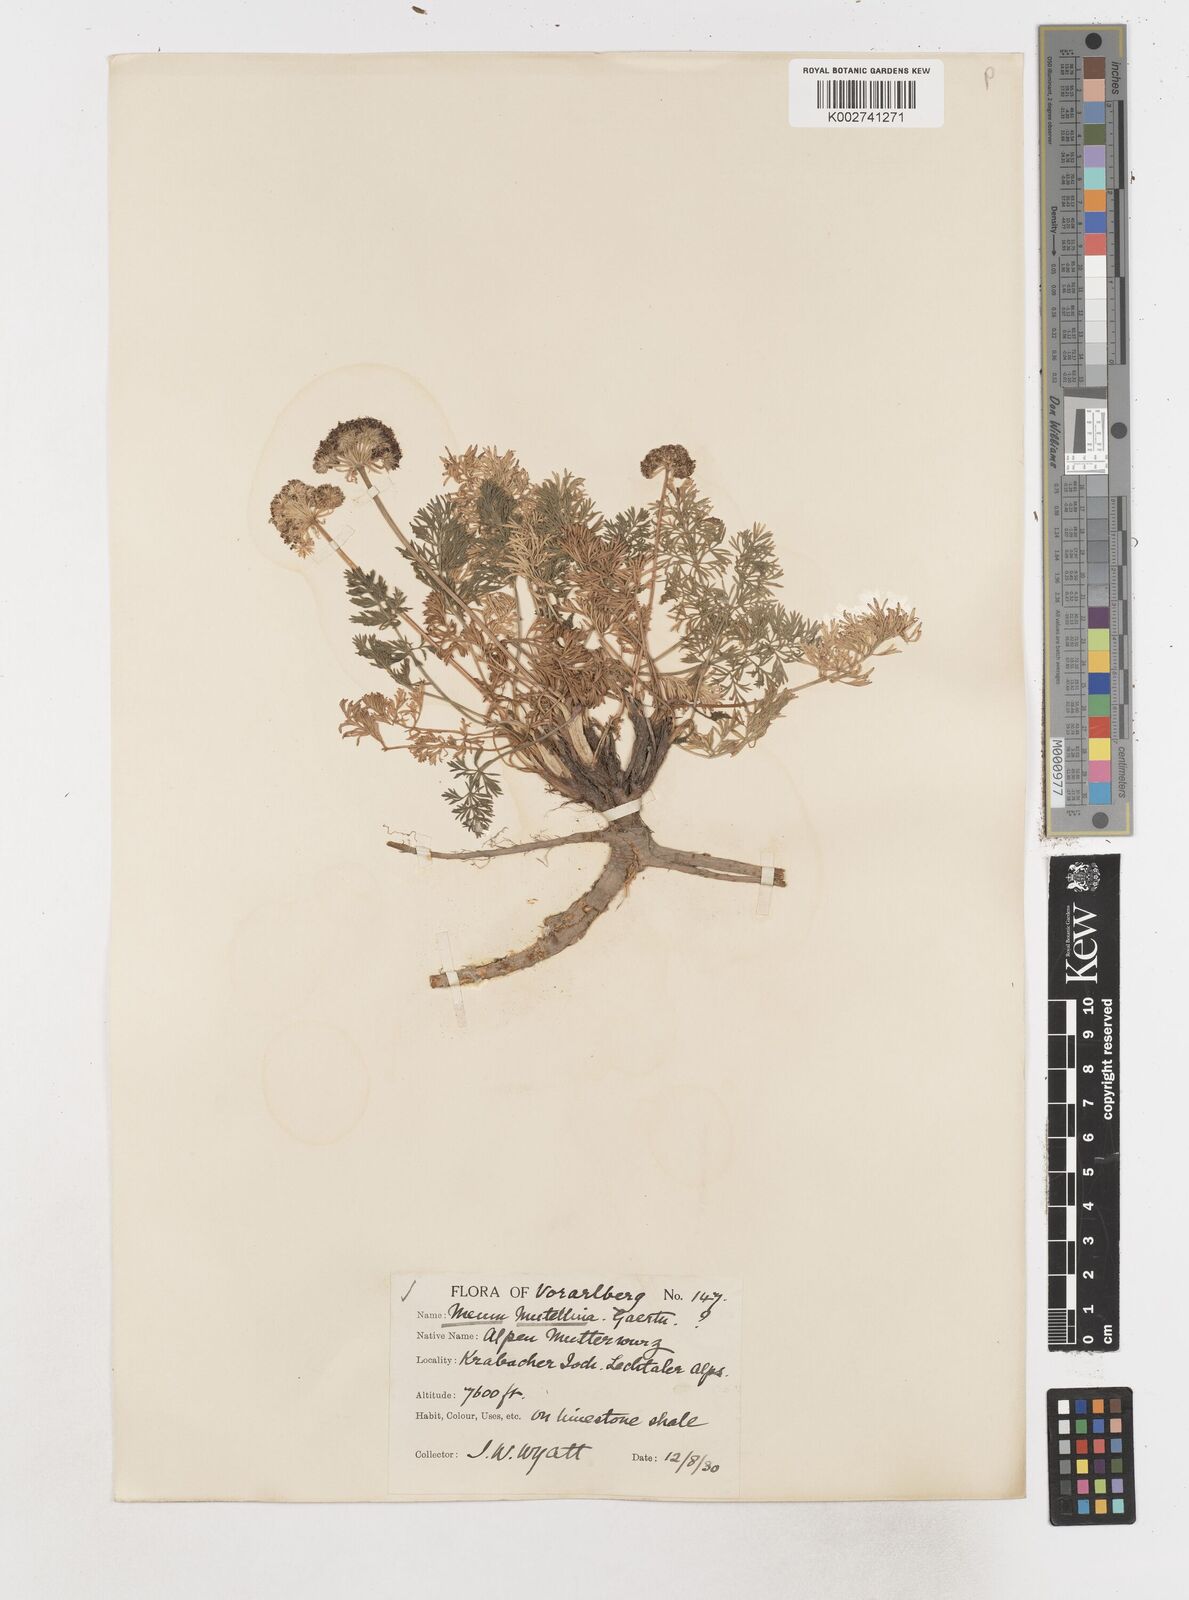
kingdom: Plantae
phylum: Tracheophyta
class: Magnoliopsida
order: Apiales
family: Apiaceae
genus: Mutellina
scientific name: Mutellina adonidifolia
